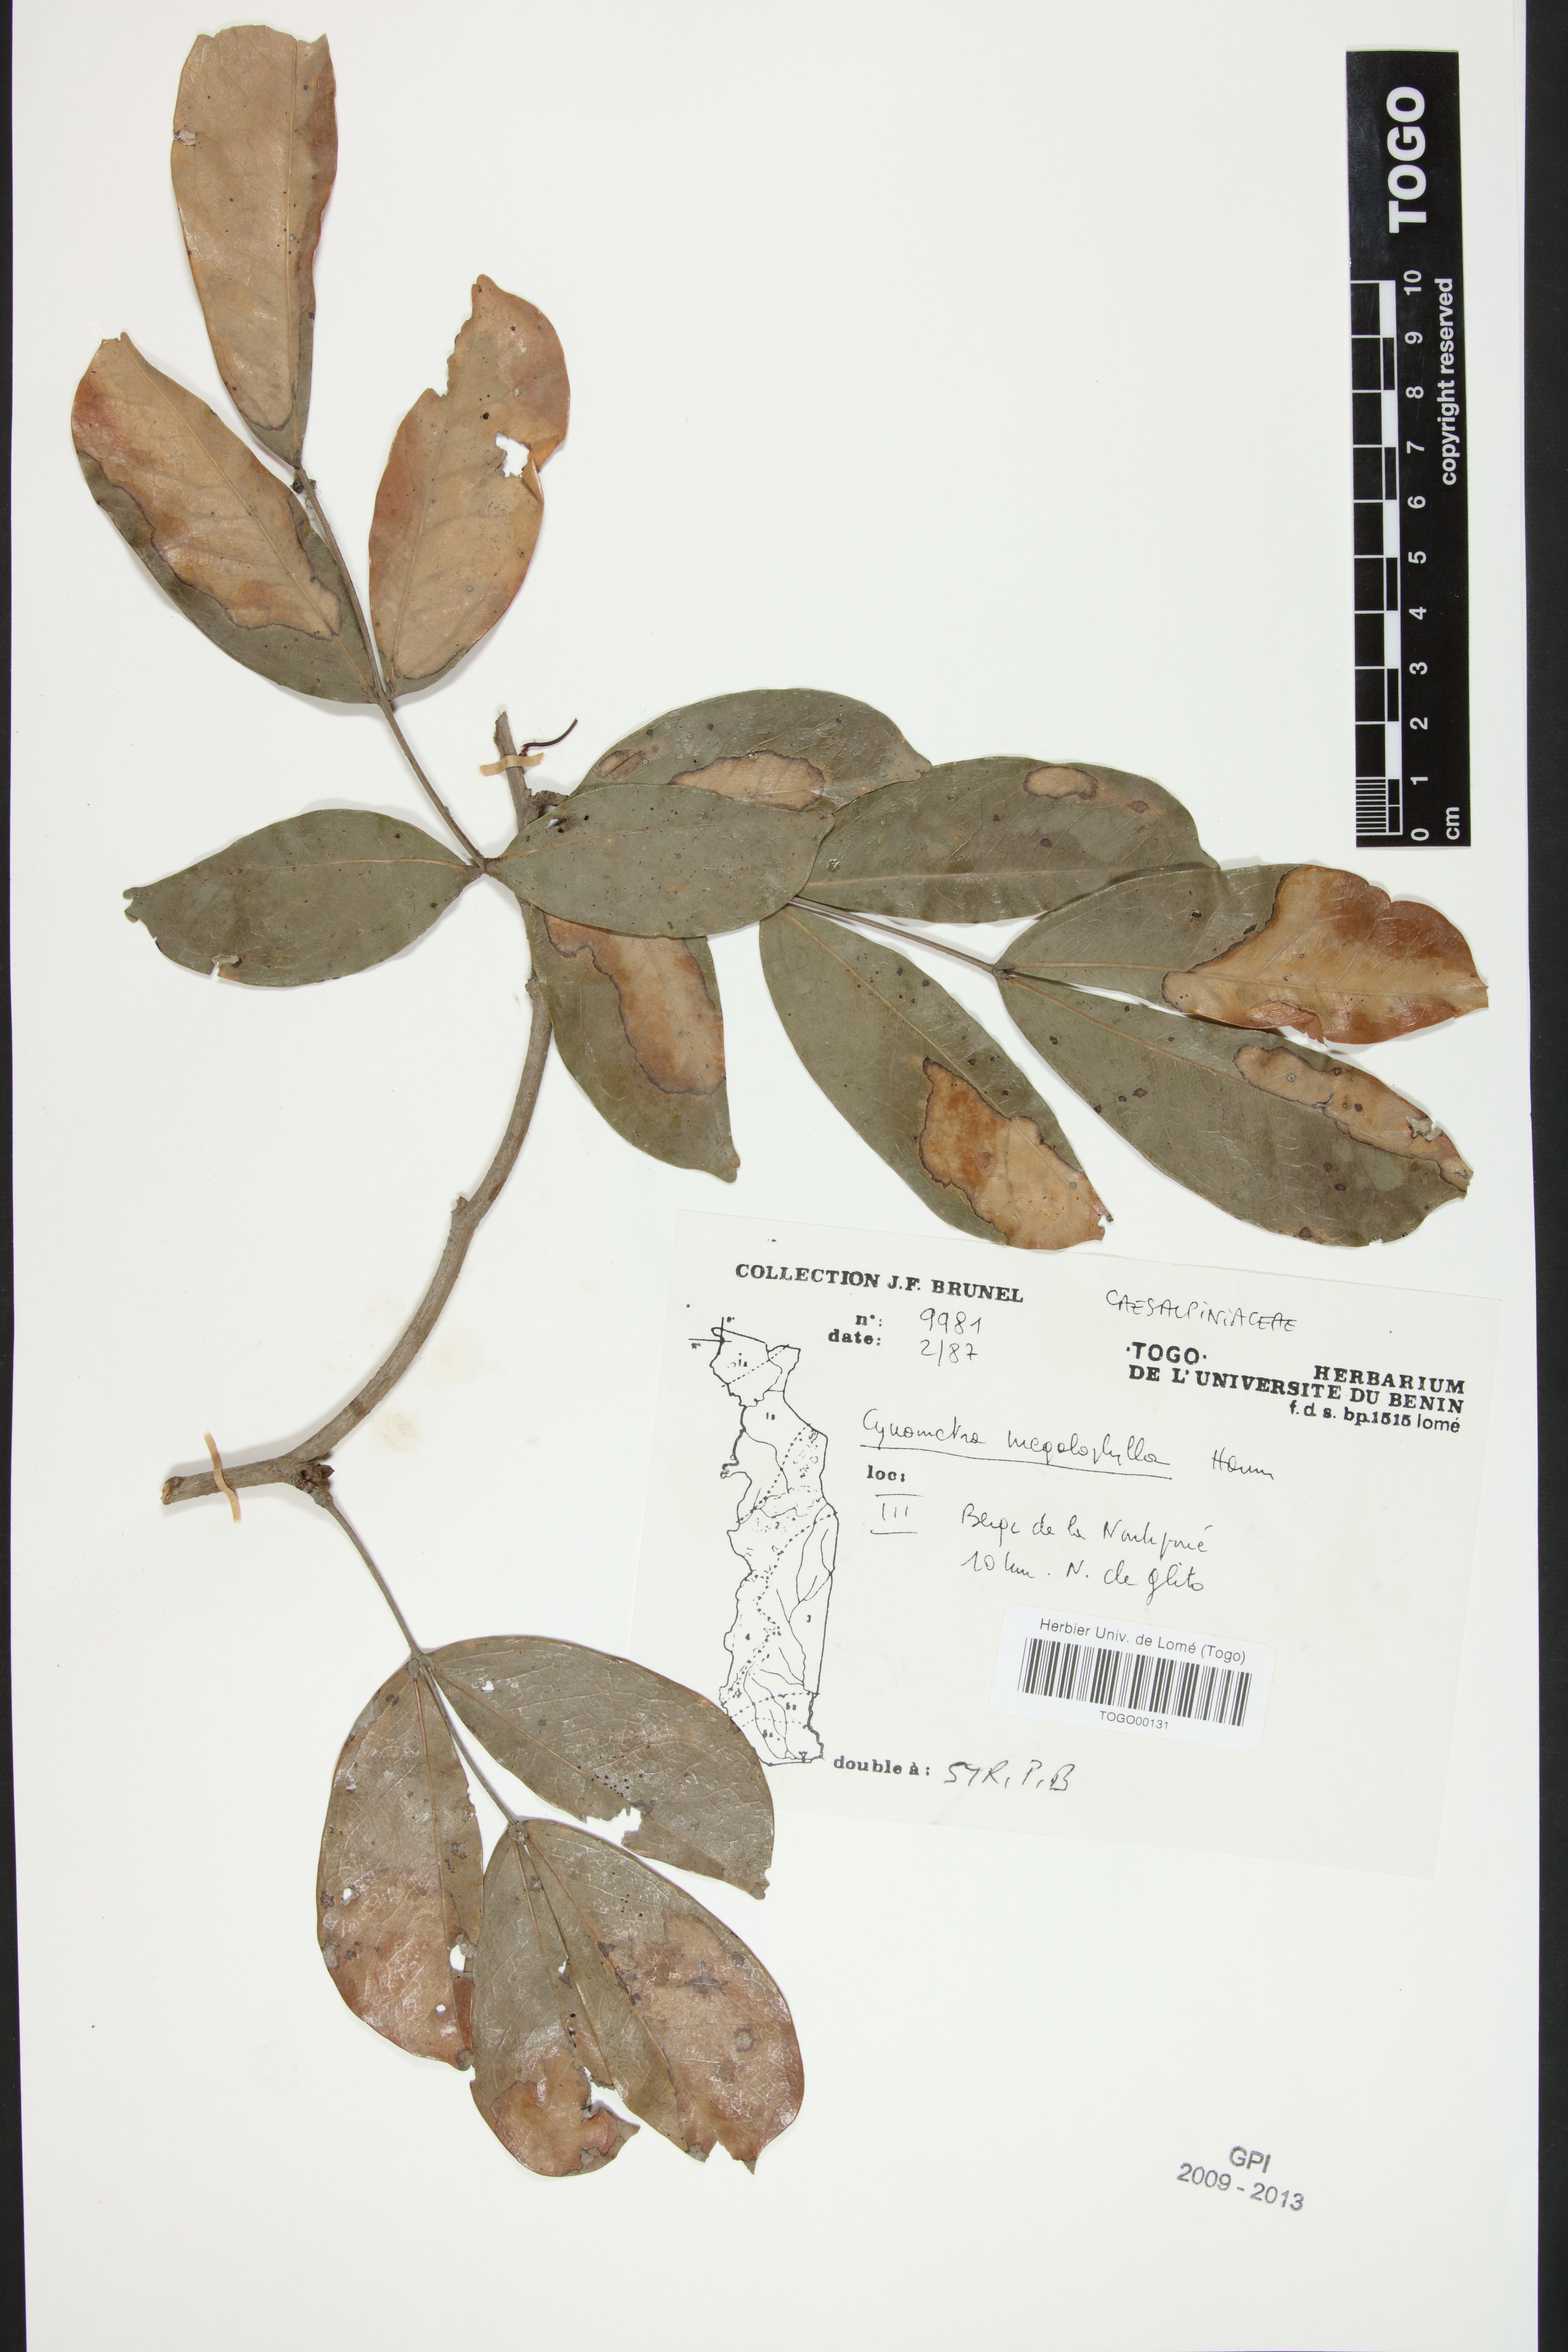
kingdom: Plantae
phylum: Tracheophyta
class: Magnoliopsida
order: Fabales
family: Fabaceae
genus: Cynometra
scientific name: Cynometra megalophylla
